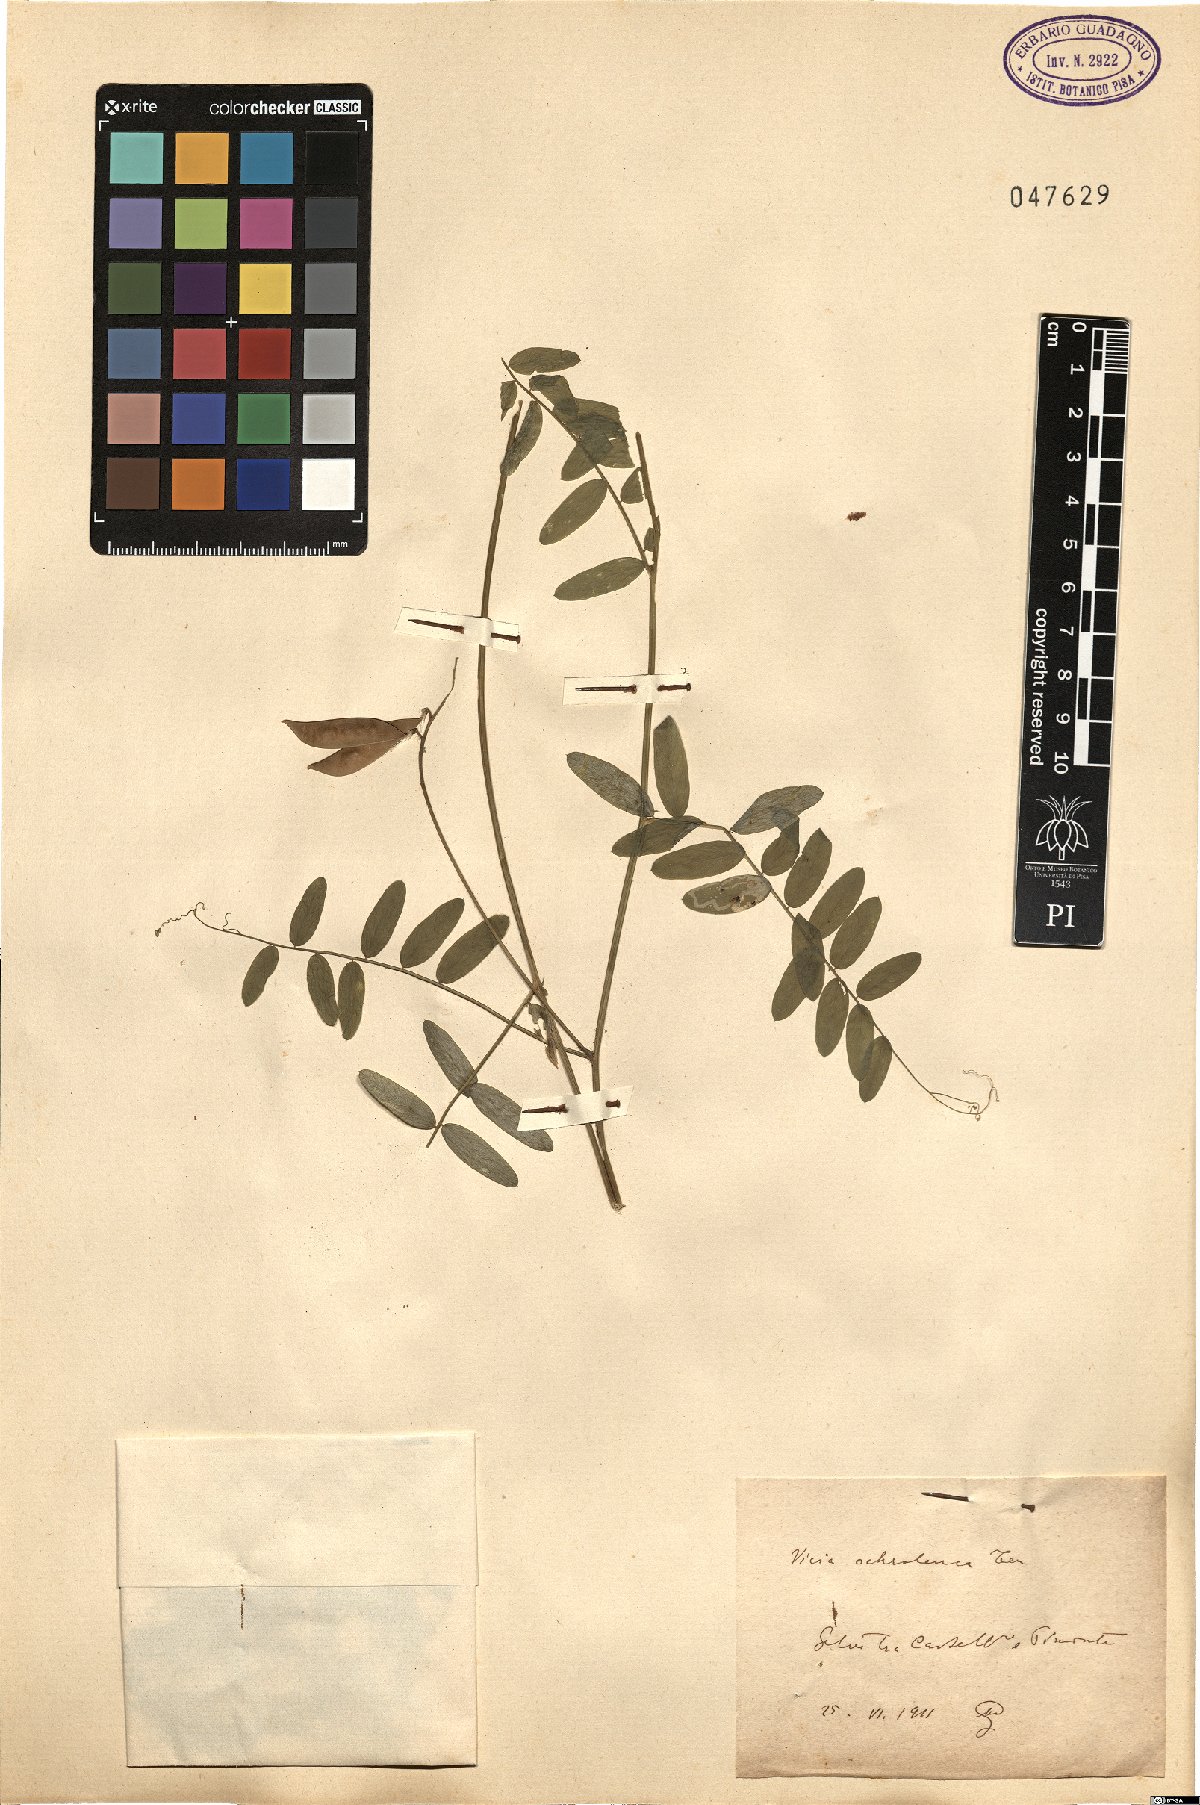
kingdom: Plantae
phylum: Tracheophyta
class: Magnoliopsida
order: Fabales
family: Fabaceae
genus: Vicia
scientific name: Vicia ochroleuca
